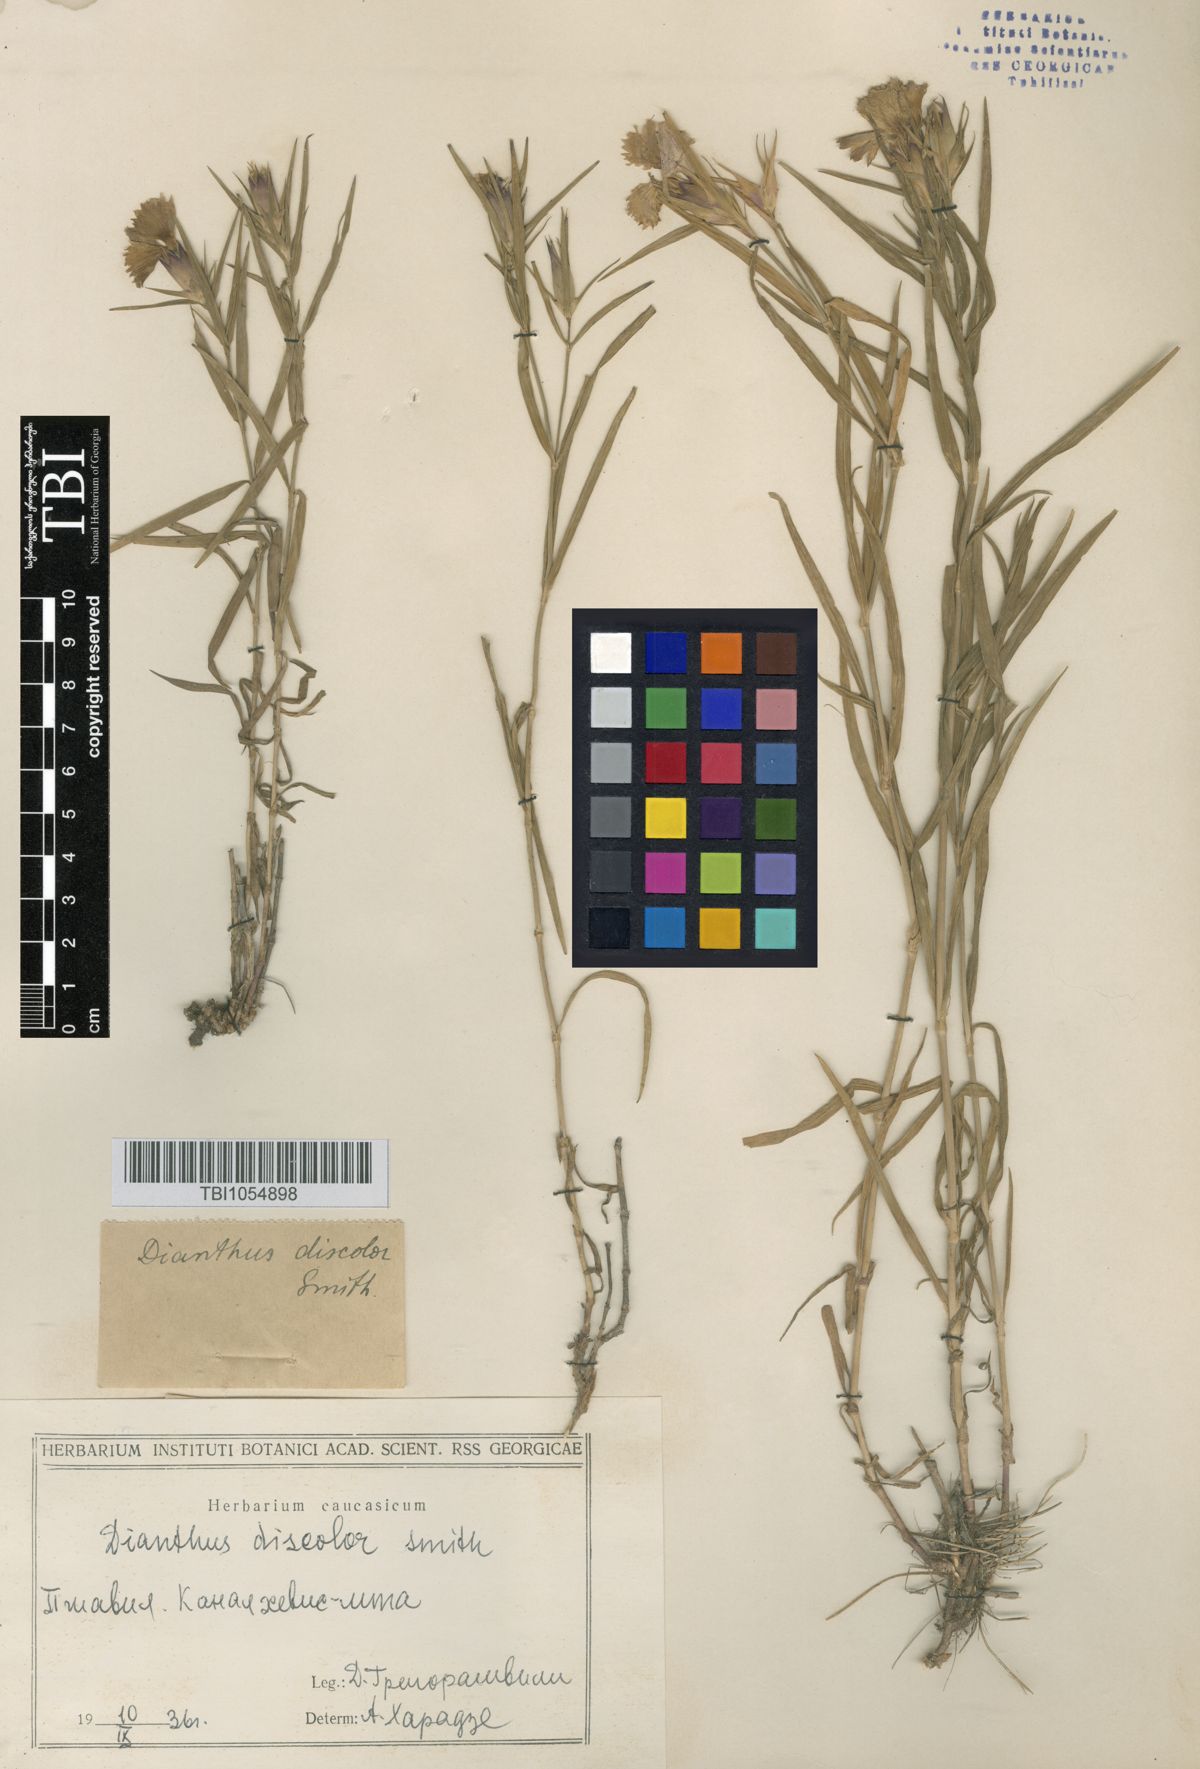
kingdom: Plantae
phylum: Tracheophyta
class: Magnoliopsida
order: Caryophyllales
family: Caryophyllaceae
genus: Dianthus
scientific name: Dianthus caucaseus
